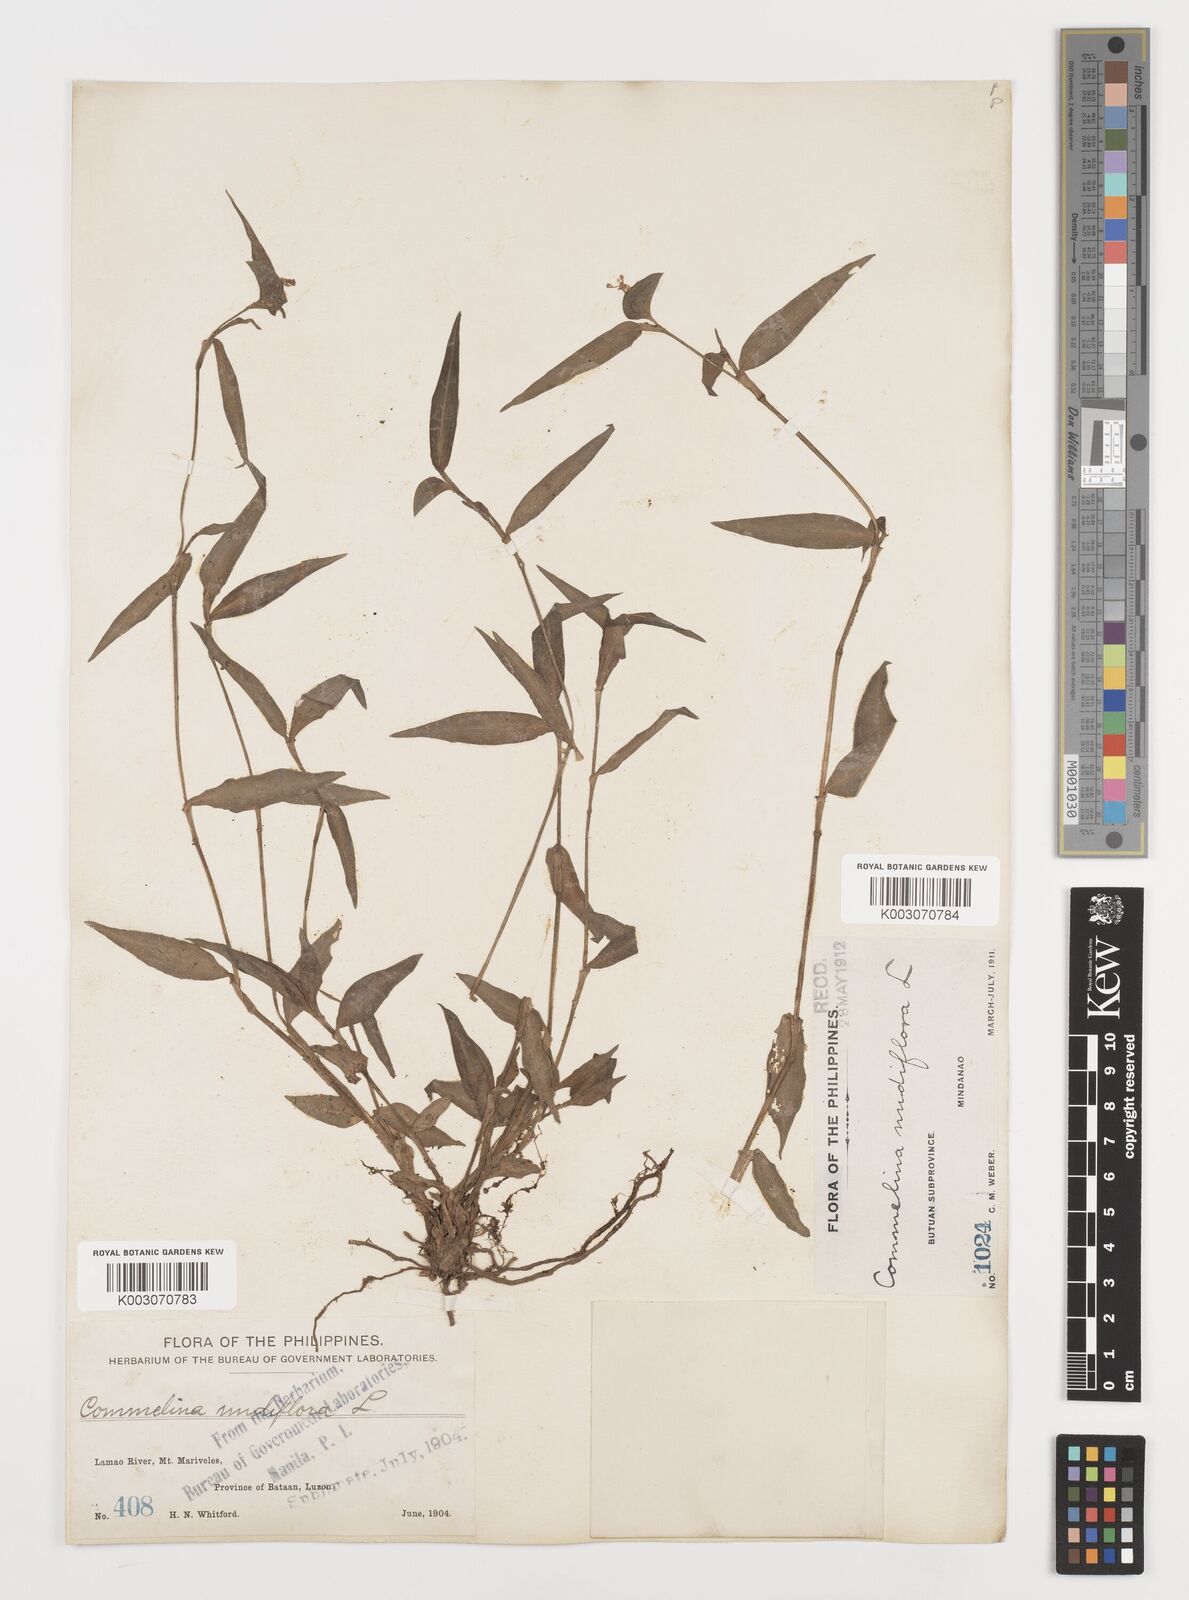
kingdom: Plantae
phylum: Tracheophyta
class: Liliopsida
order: Commelinales
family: Commelinaceae
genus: Murdannia
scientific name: Murdannia nudiflora
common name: Nakedstem dewflower
